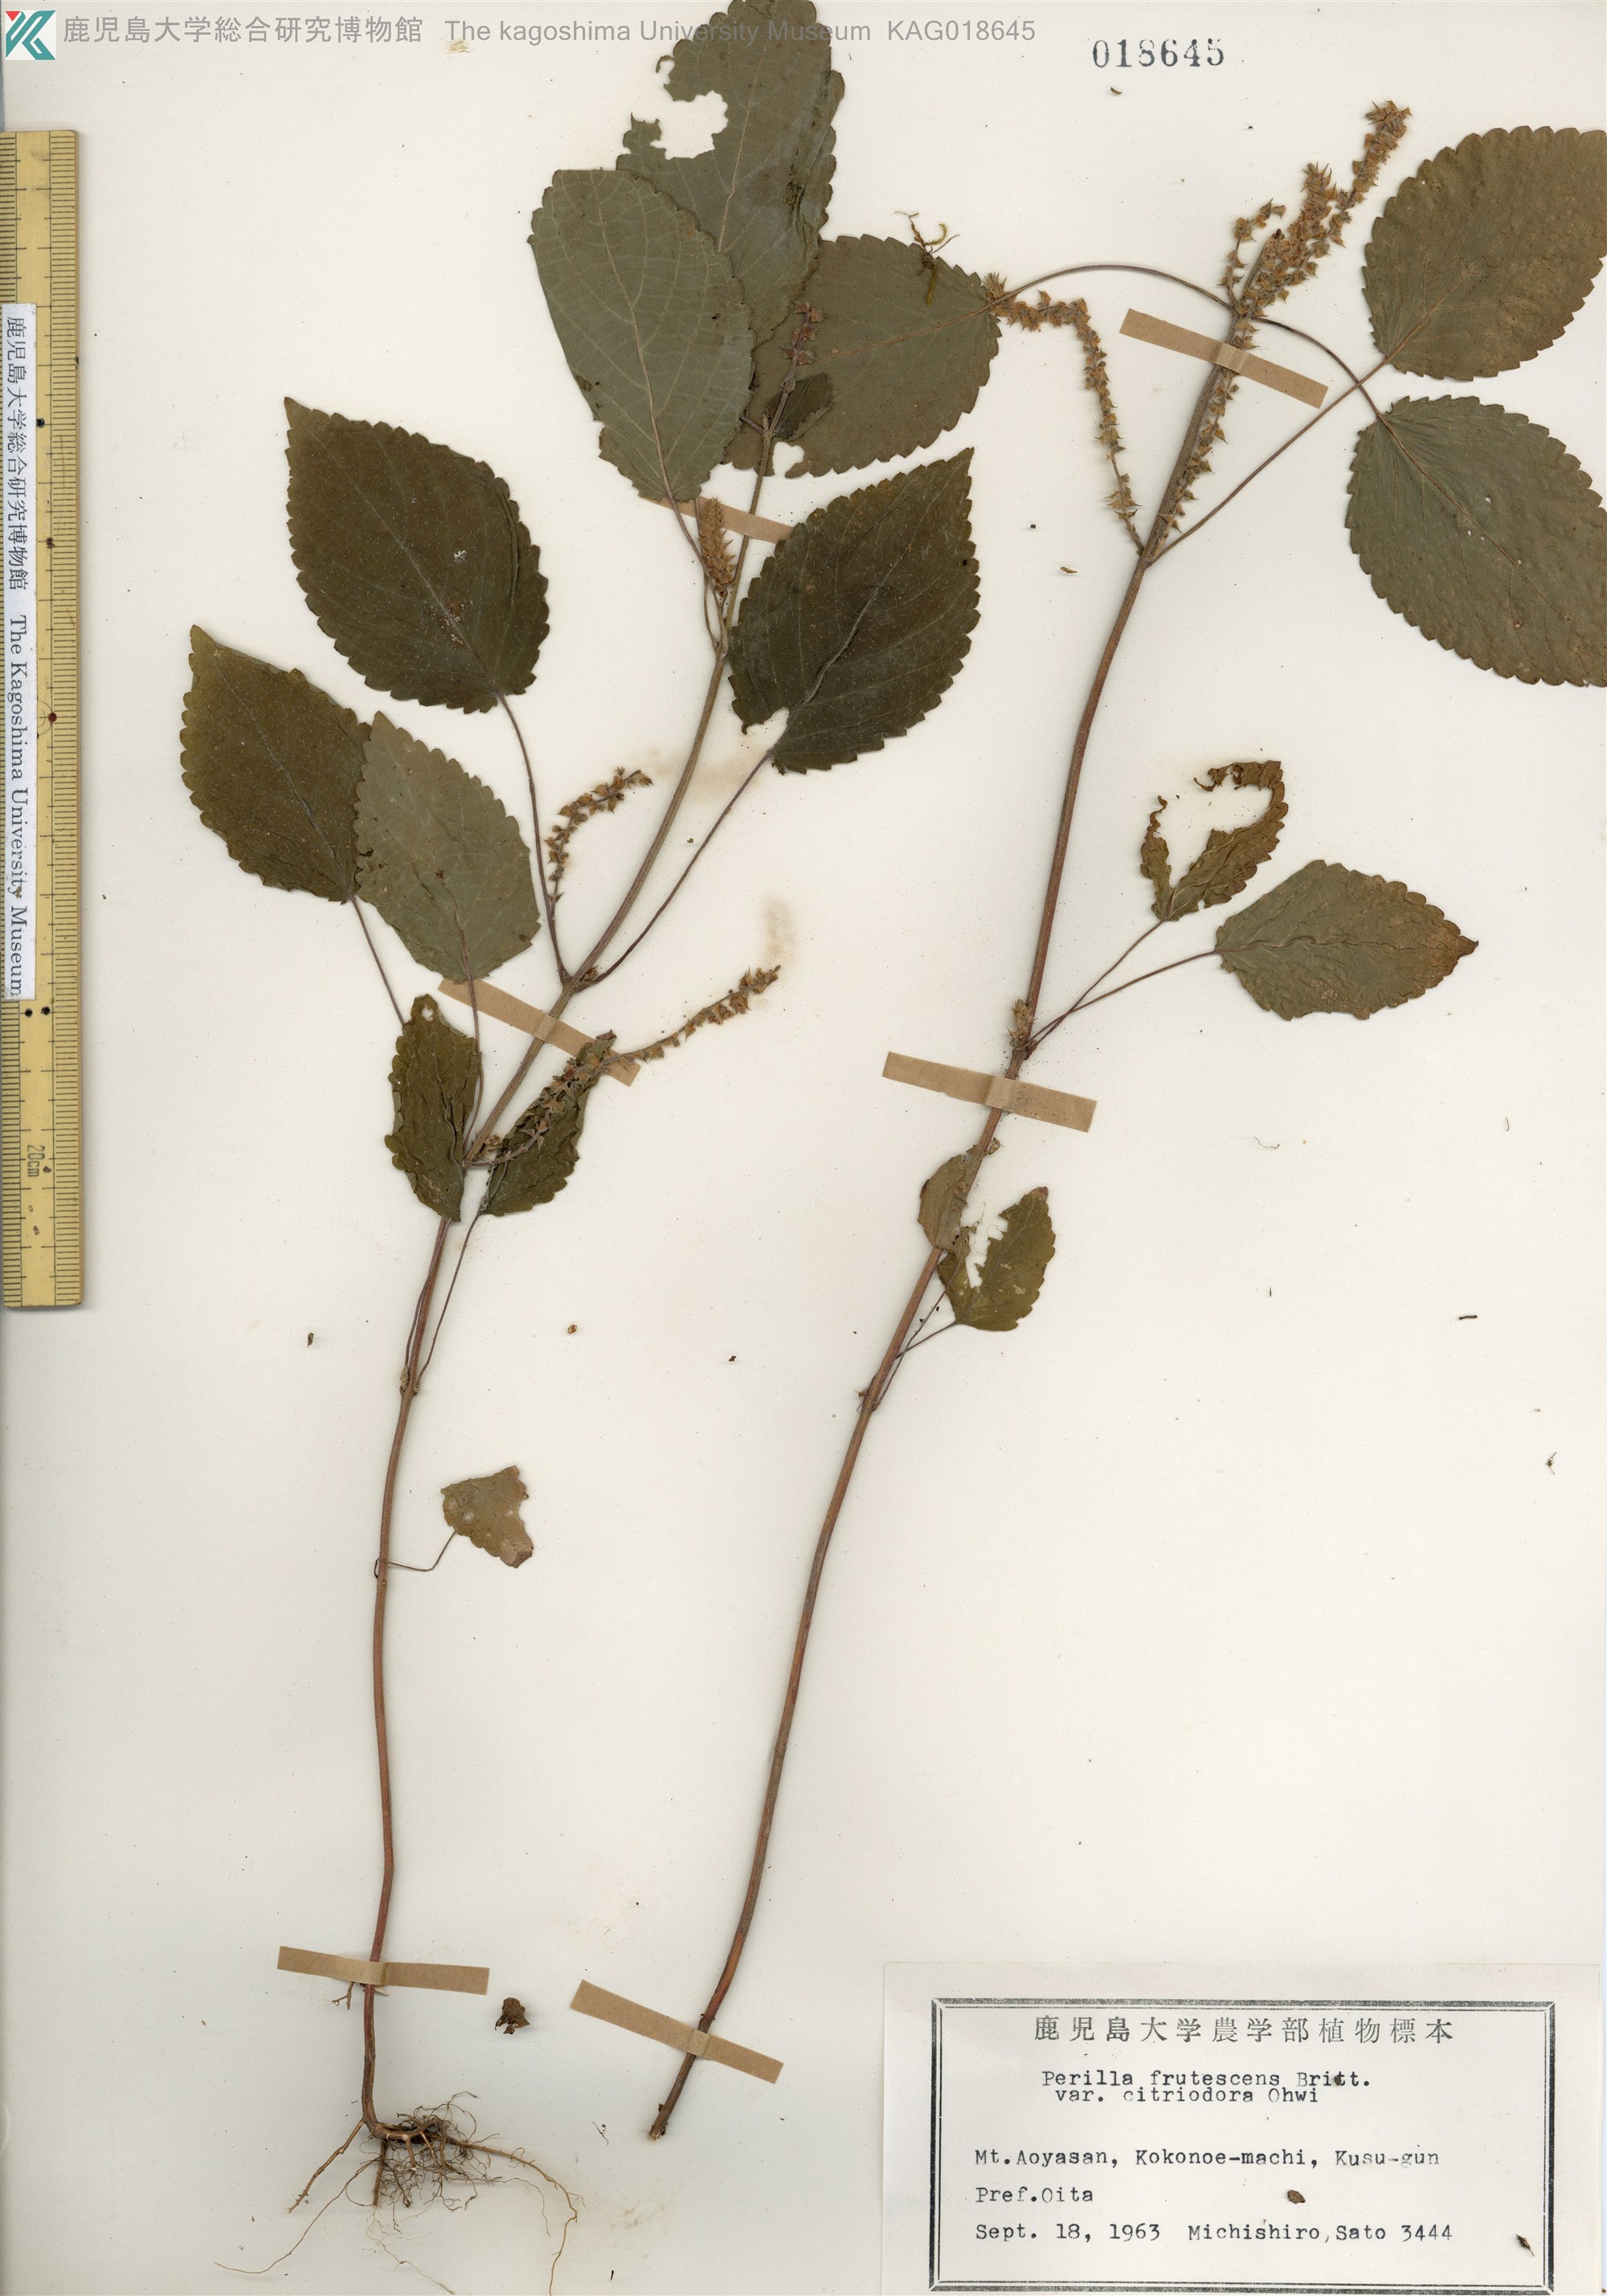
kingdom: Plantae
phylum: Tracheophyta
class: Magnoliopsida
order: Lamiales
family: Lamiaceae
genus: Perilla
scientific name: Perilla frutescens
